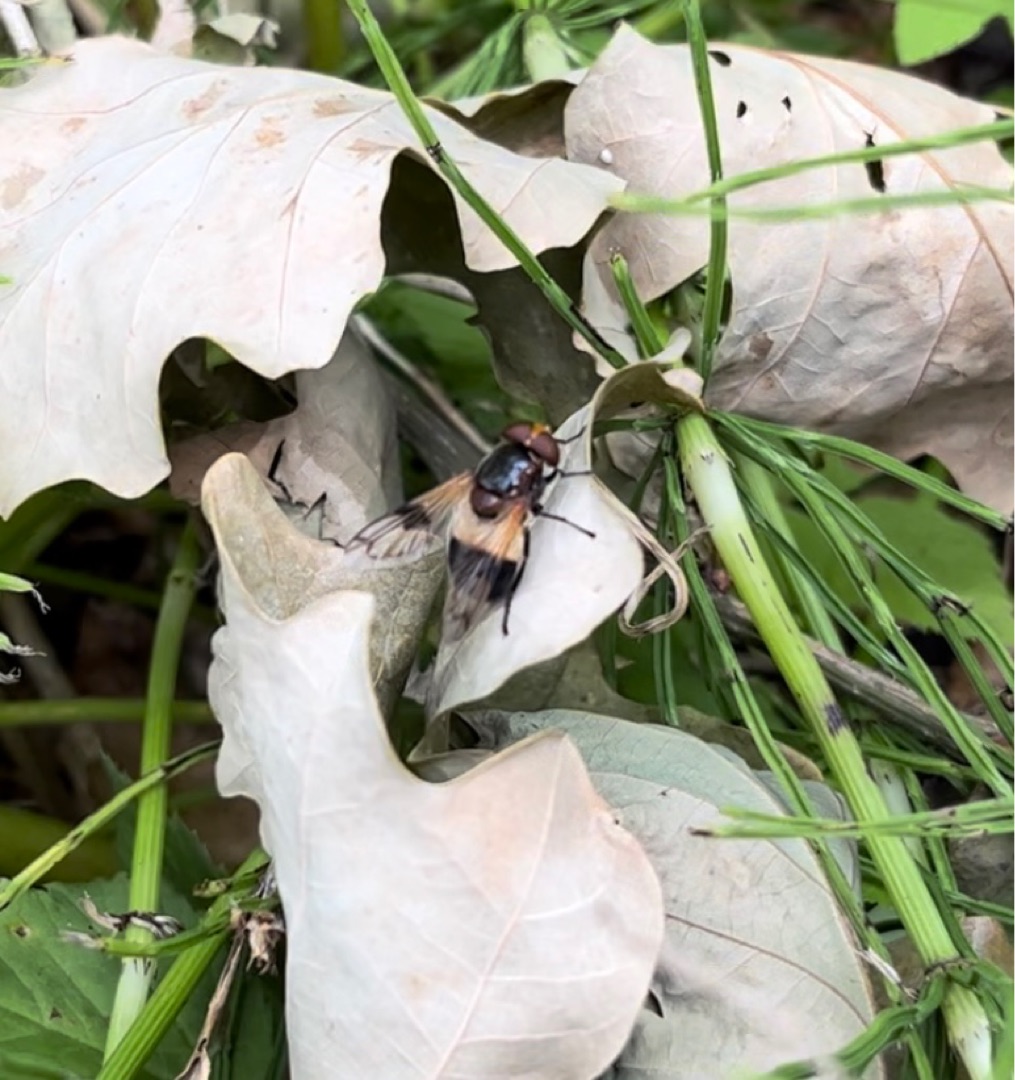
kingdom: Animalia
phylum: Arthropoda
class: Insecta
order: Diptera
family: Syrphidae
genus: Volucella
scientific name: Volucella pellucens
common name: Hvidbåndet humlesvirreflue
